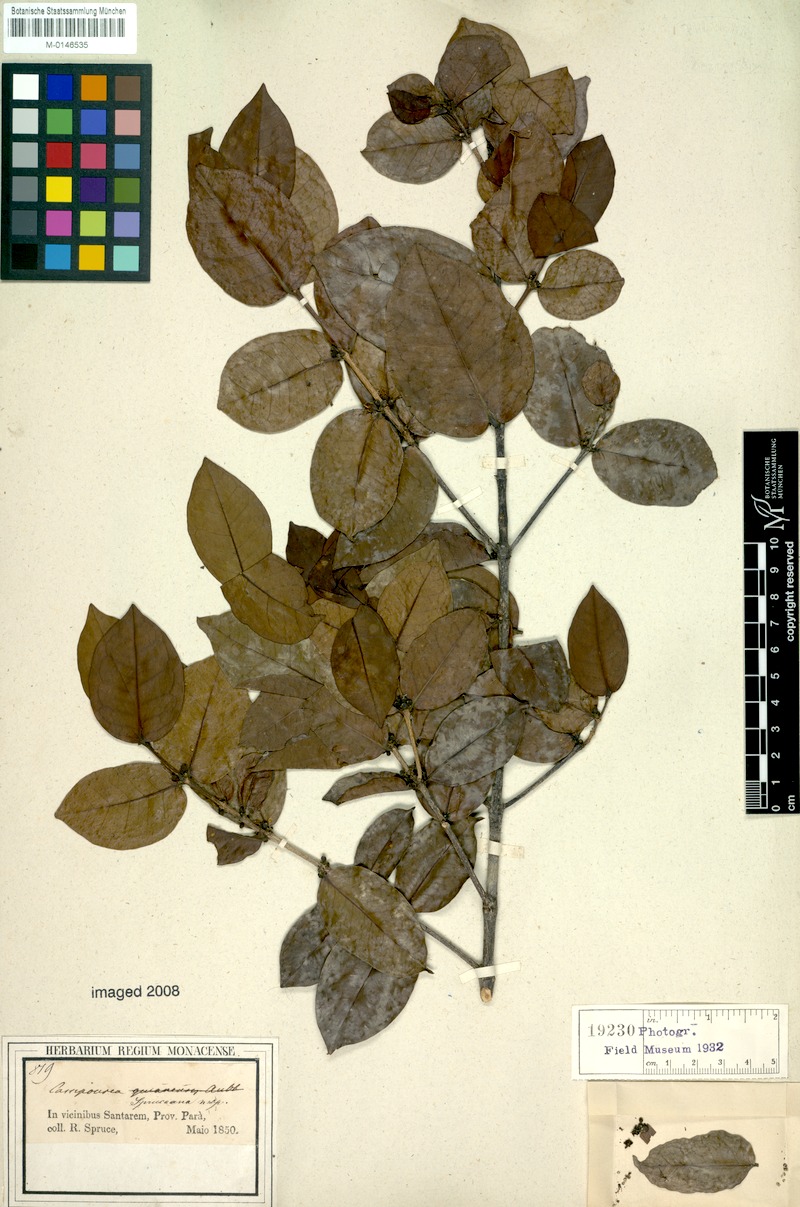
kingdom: Plantae
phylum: Tracheophyta
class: Magnoliopsida
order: Malpighiales
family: Rhizophoraceae
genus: Cassipourea
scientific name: Cassipourea spruceana
